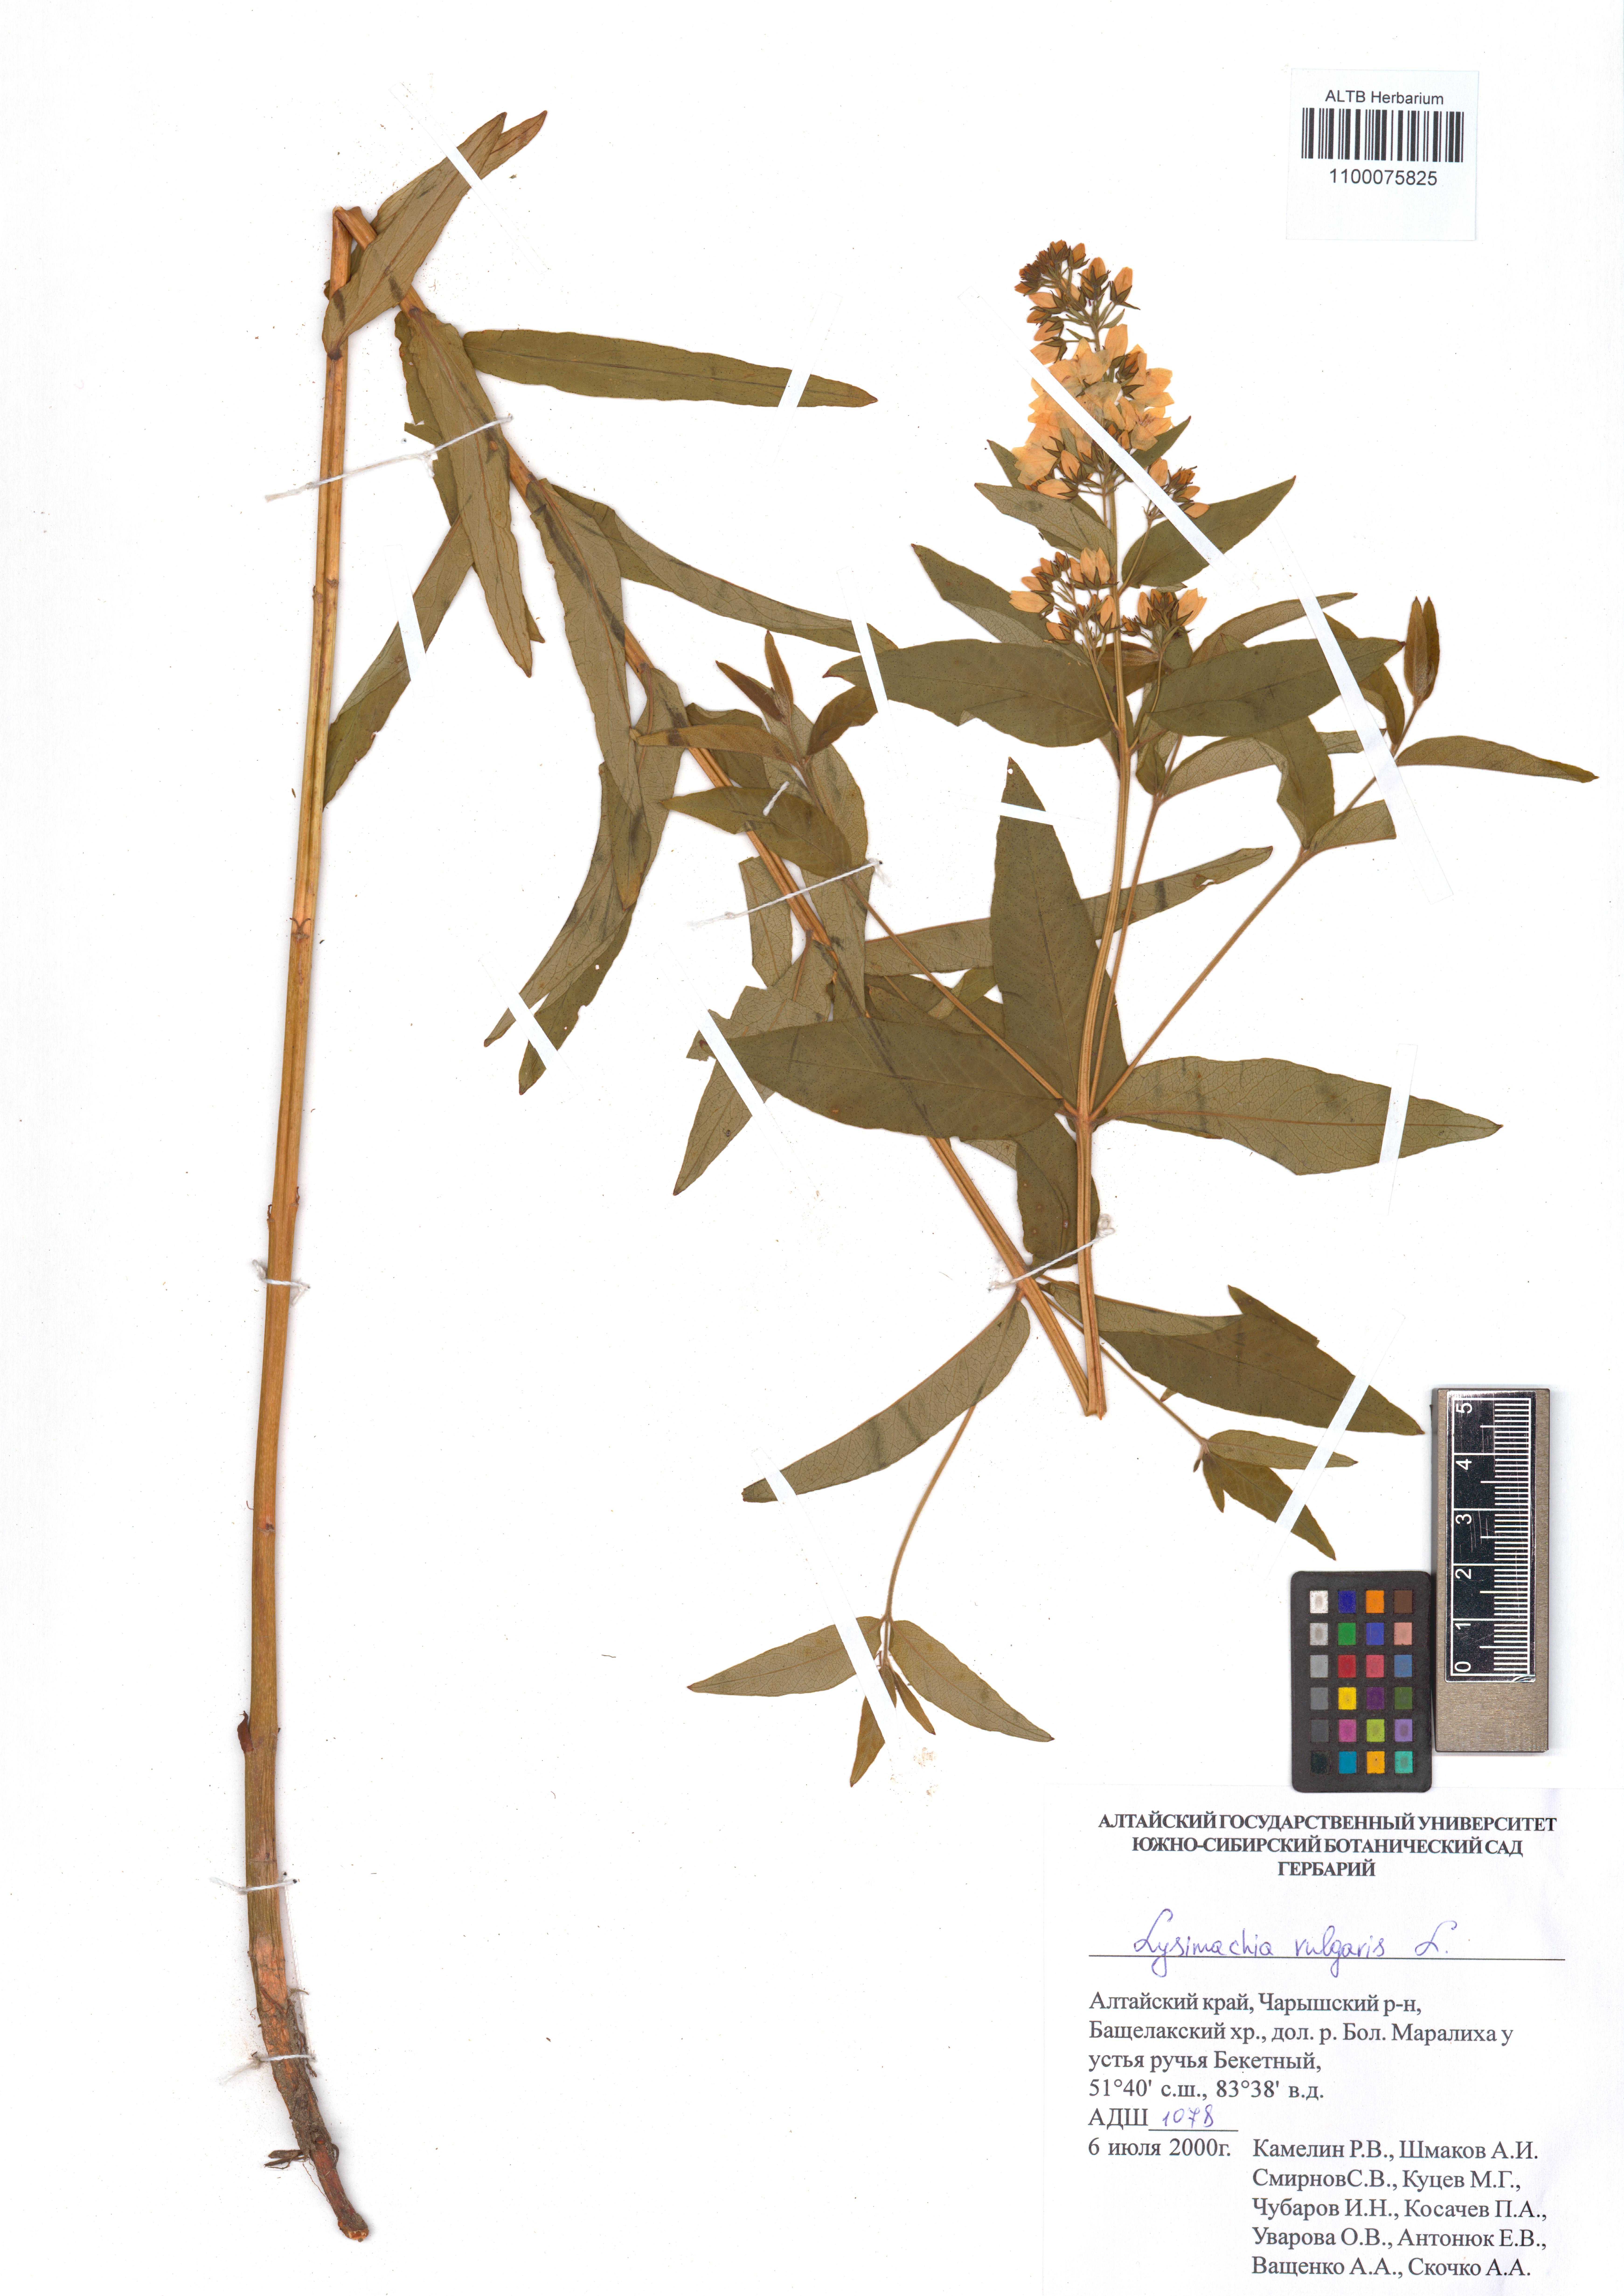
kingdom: Plantae
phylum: Tracheophyta
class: Magnoliopsida
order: Ericales
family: Primulaceae
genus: Lysimachia
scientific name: Lysimachia vulgaris
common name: Yellow loosestrife
